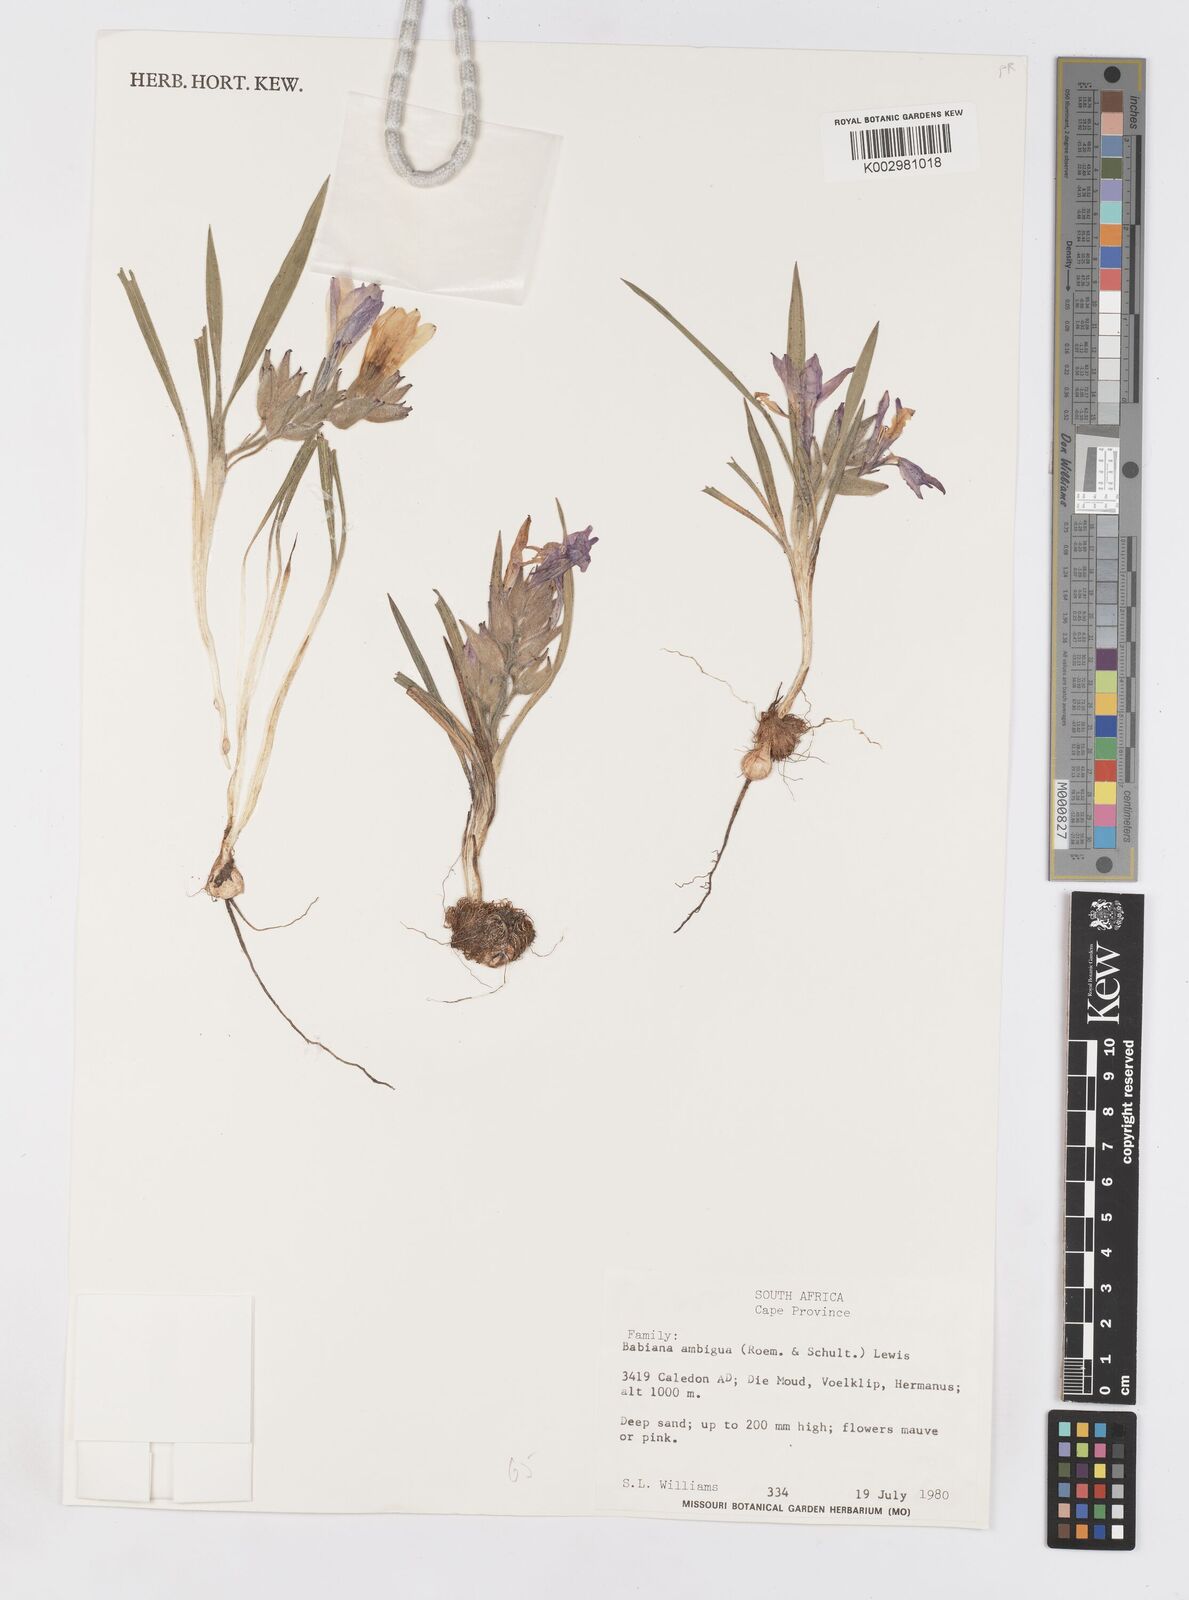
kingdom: Plantae
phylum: Tracheophyta
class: Liliopsida
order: Asparagales
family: Iridaceae
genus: Babiana
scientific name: Babiana ambigua
